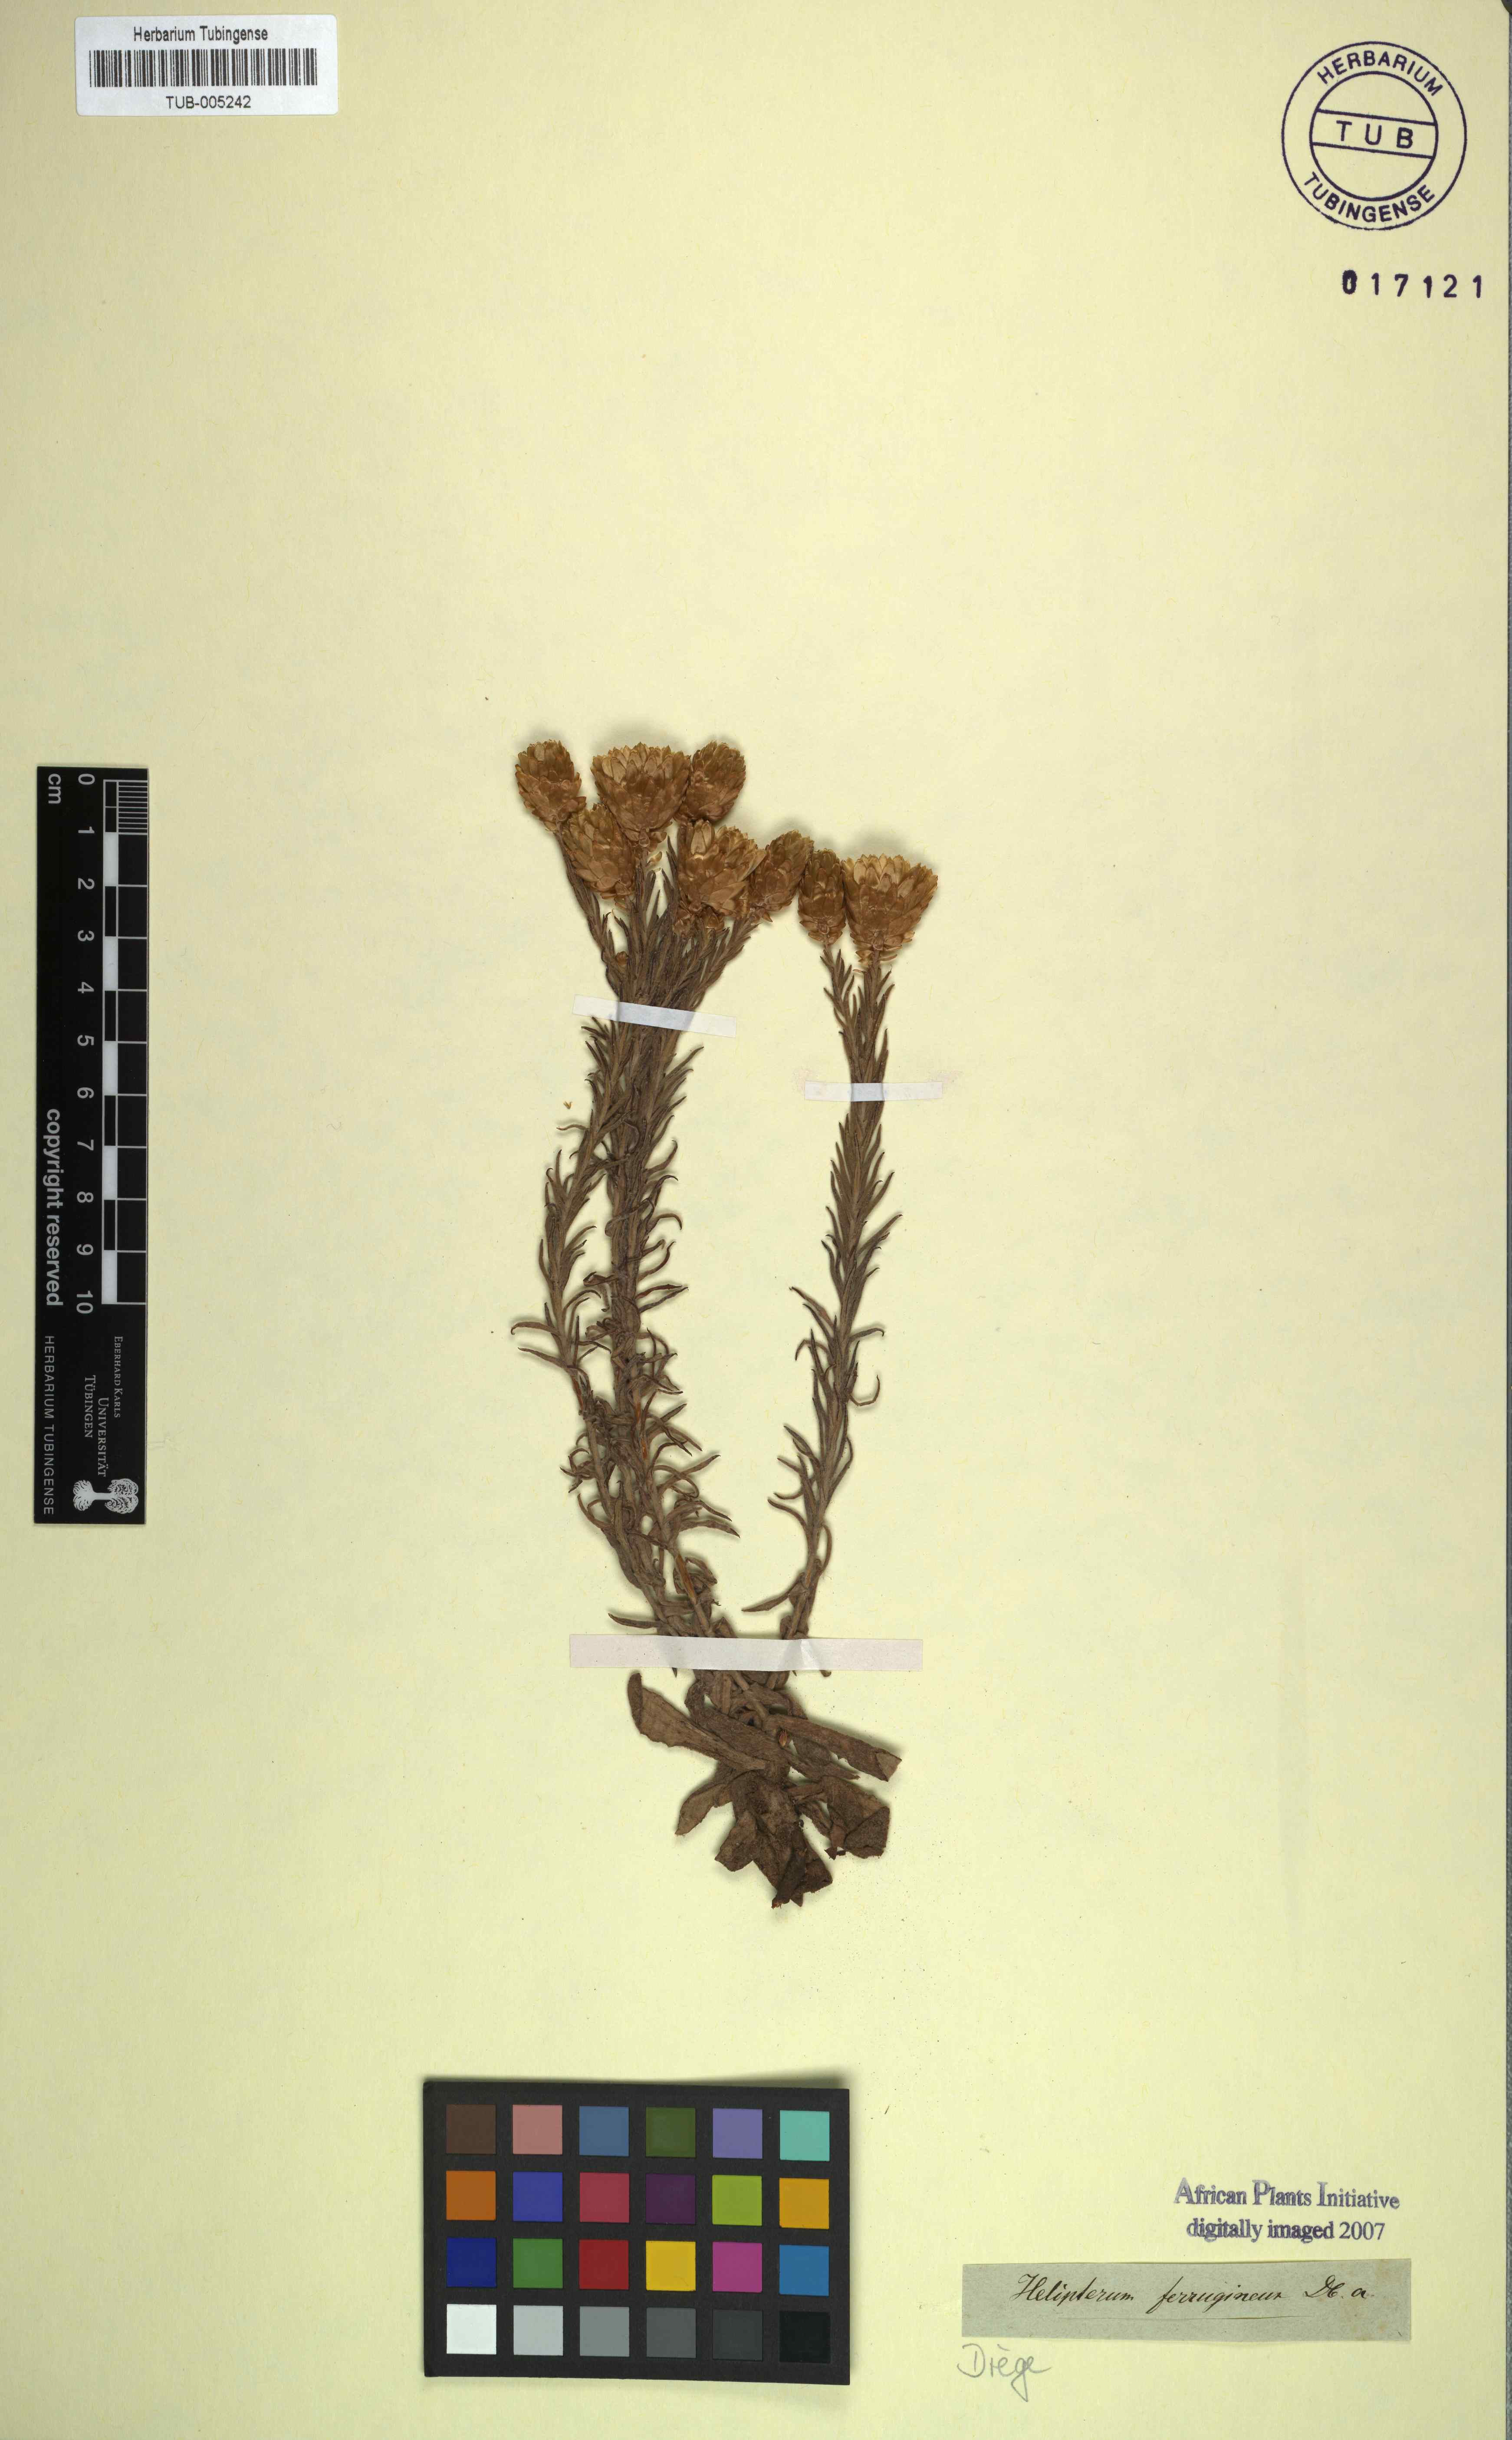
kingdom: Plantae
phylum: Tracheophyta
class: Magnoliopsida
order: Asterales
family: Asteraceae
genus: Edmondia
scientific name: Edmondia pinifolia
